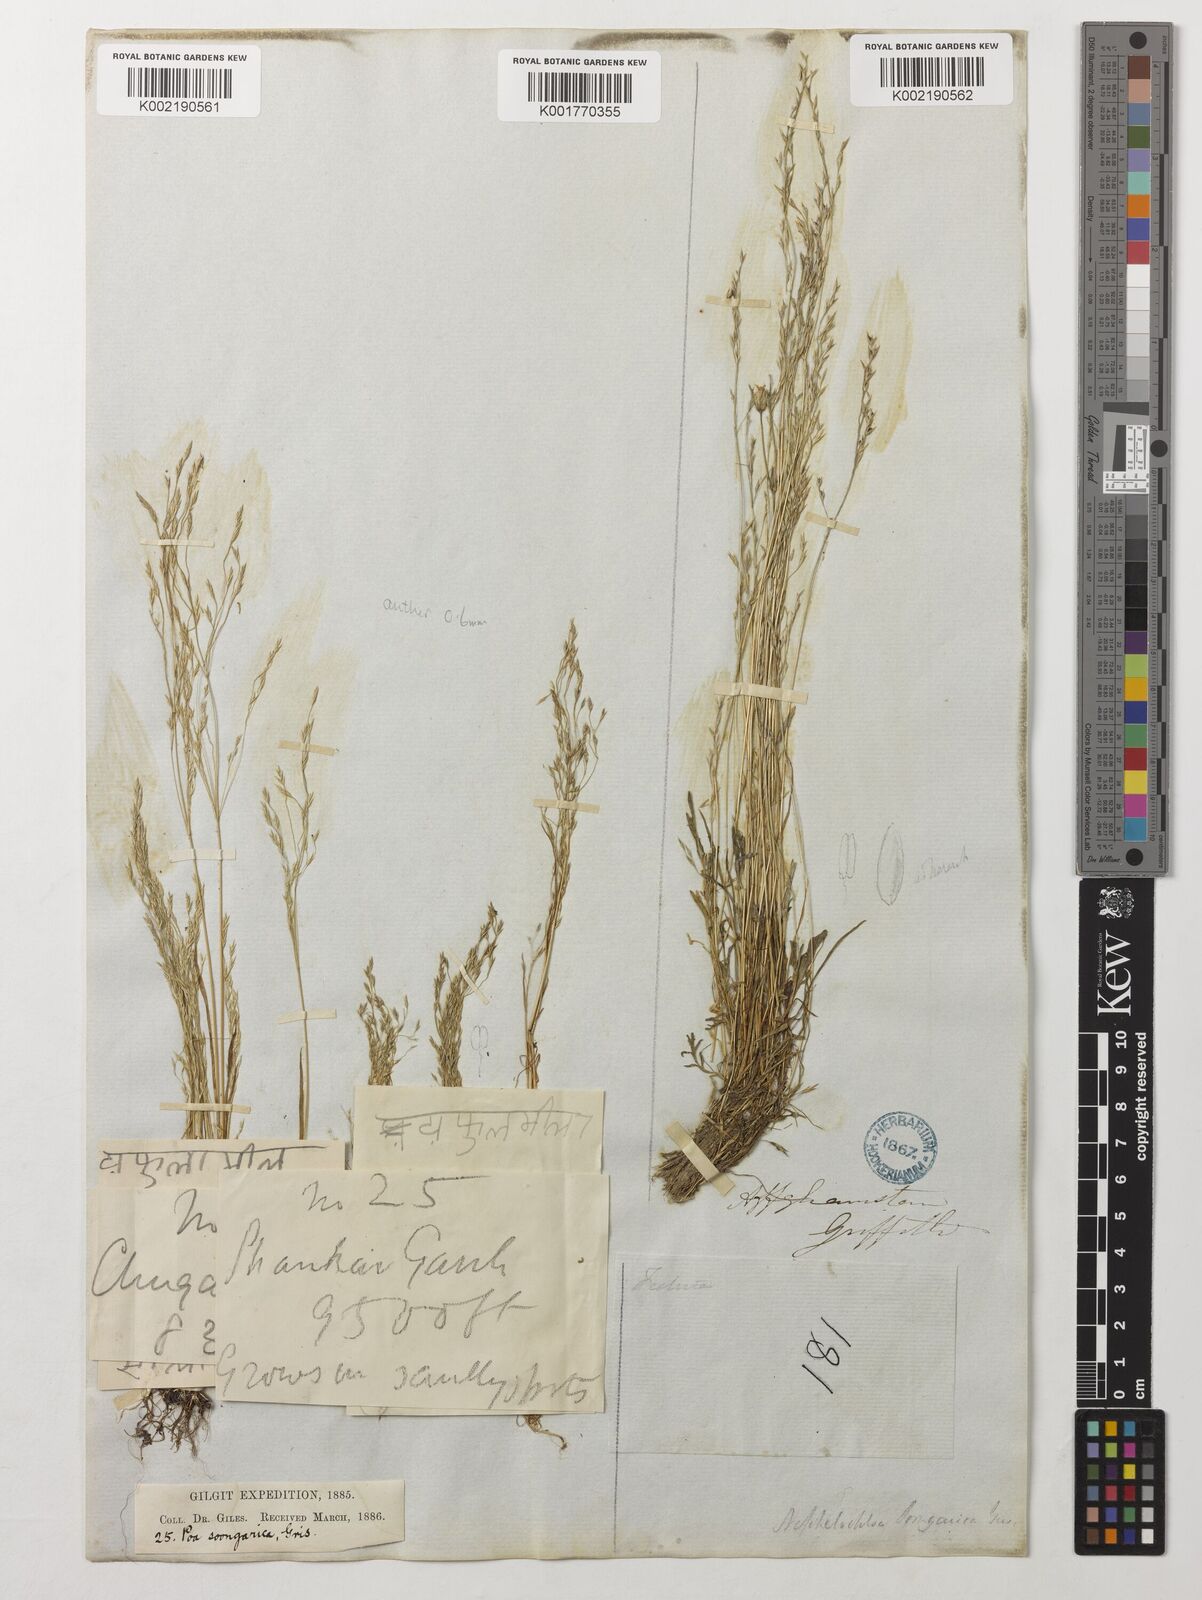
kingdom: Plantae
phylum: Tracheophyta
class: Liliopsida
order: Poales
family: Poaceae
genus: Poa
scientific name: Poa diaphora
